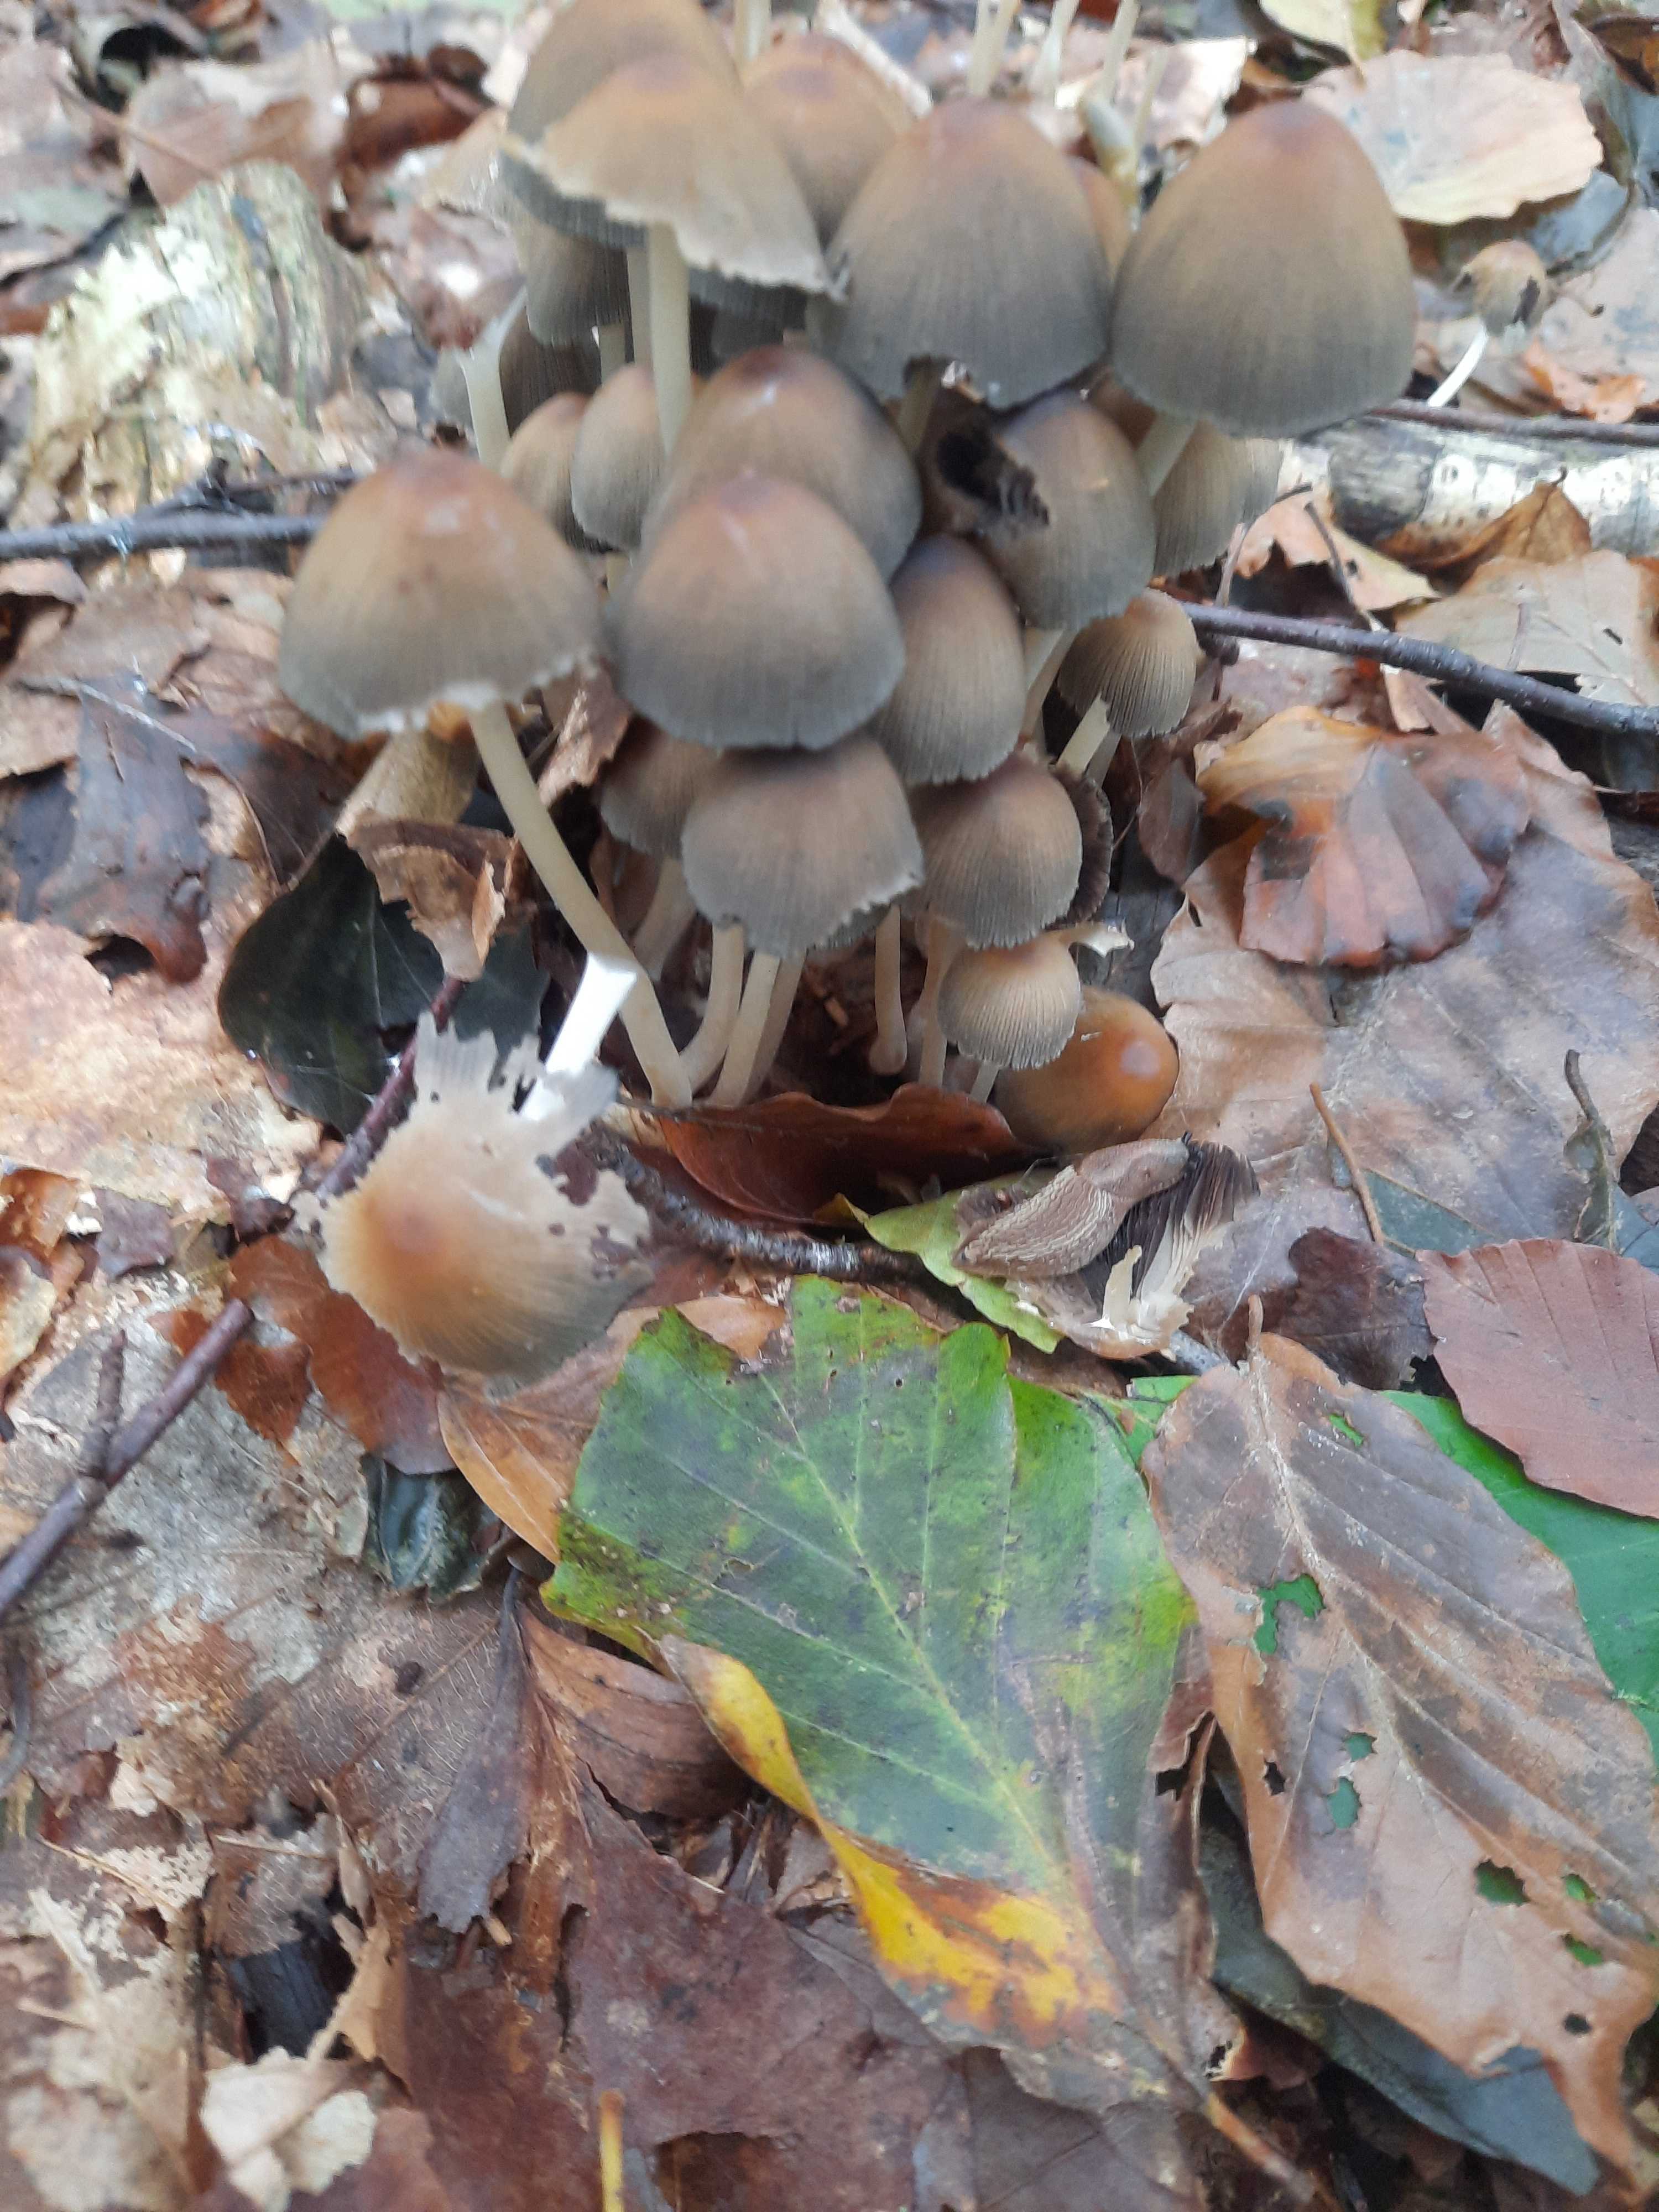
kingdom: Fungi
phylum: Basidiomycota
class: Agaricomycetes
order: Agaricales
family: Psathyrellaceae
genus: Coprinellus
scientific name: Coprinellus micaceus
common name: glimmer-blækhat
